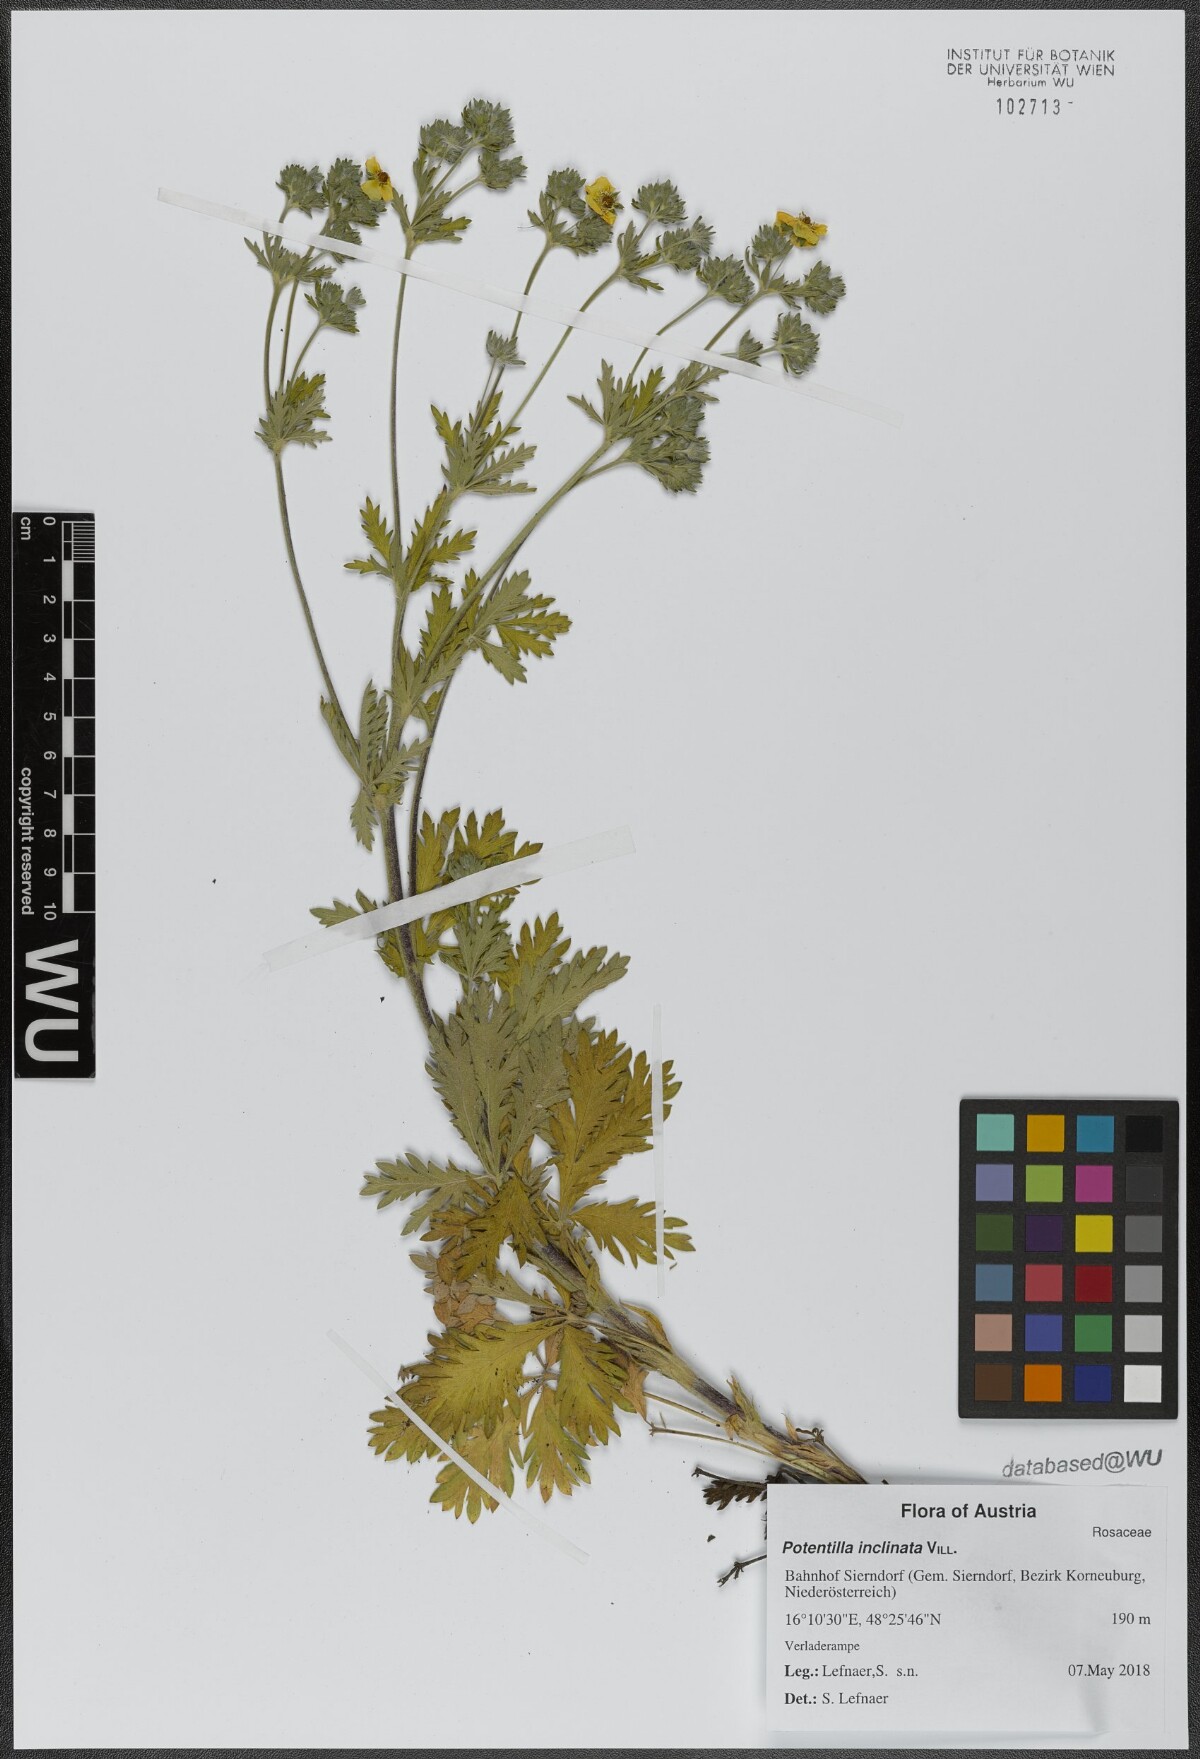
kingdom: Plantae
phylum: Tracheophyta
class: Magnoliopsida
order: Rosales
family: Rosaceae
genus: Potentilla
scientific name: Potentilla inclinata
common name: Grey cinquefoil
